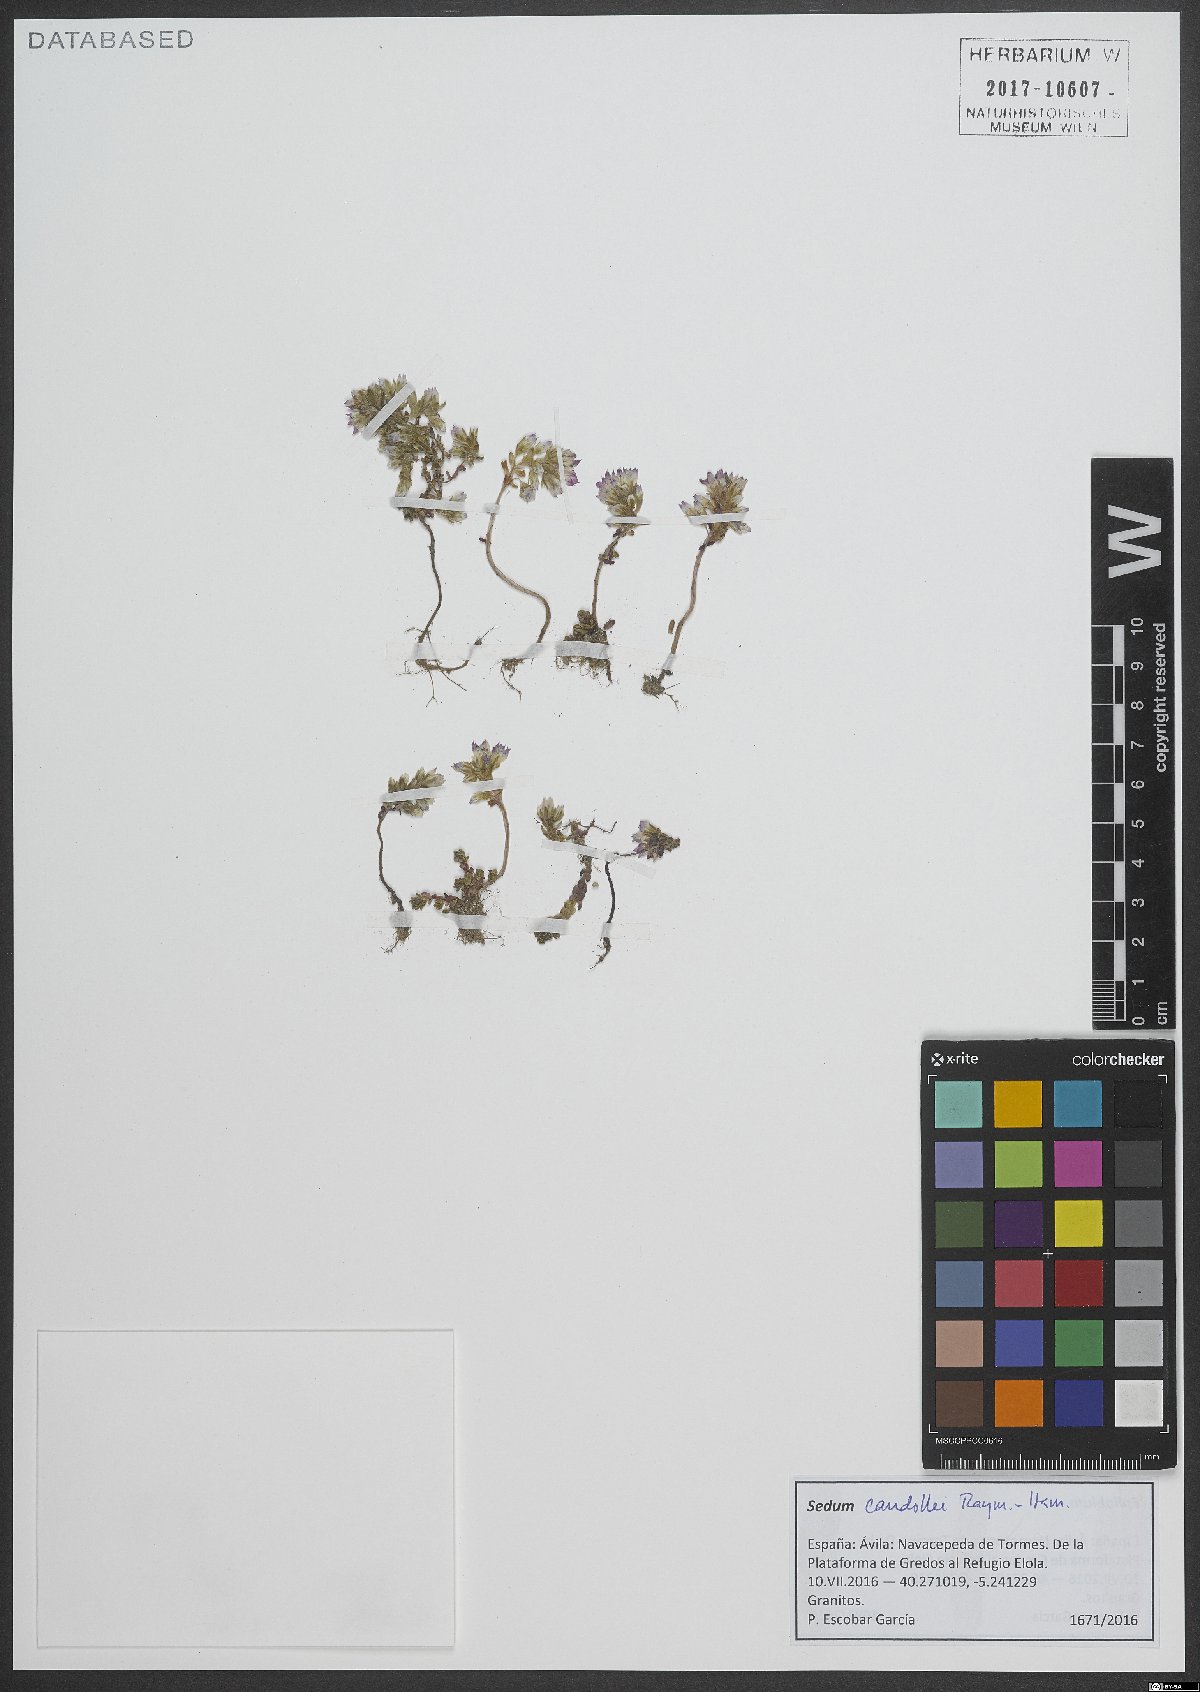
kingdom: Plantae
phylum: Tracheophyta
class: Magnoliopsida
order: Saxifragales
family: Crassulaceae
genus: Sedum
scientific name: Sedum candollei
